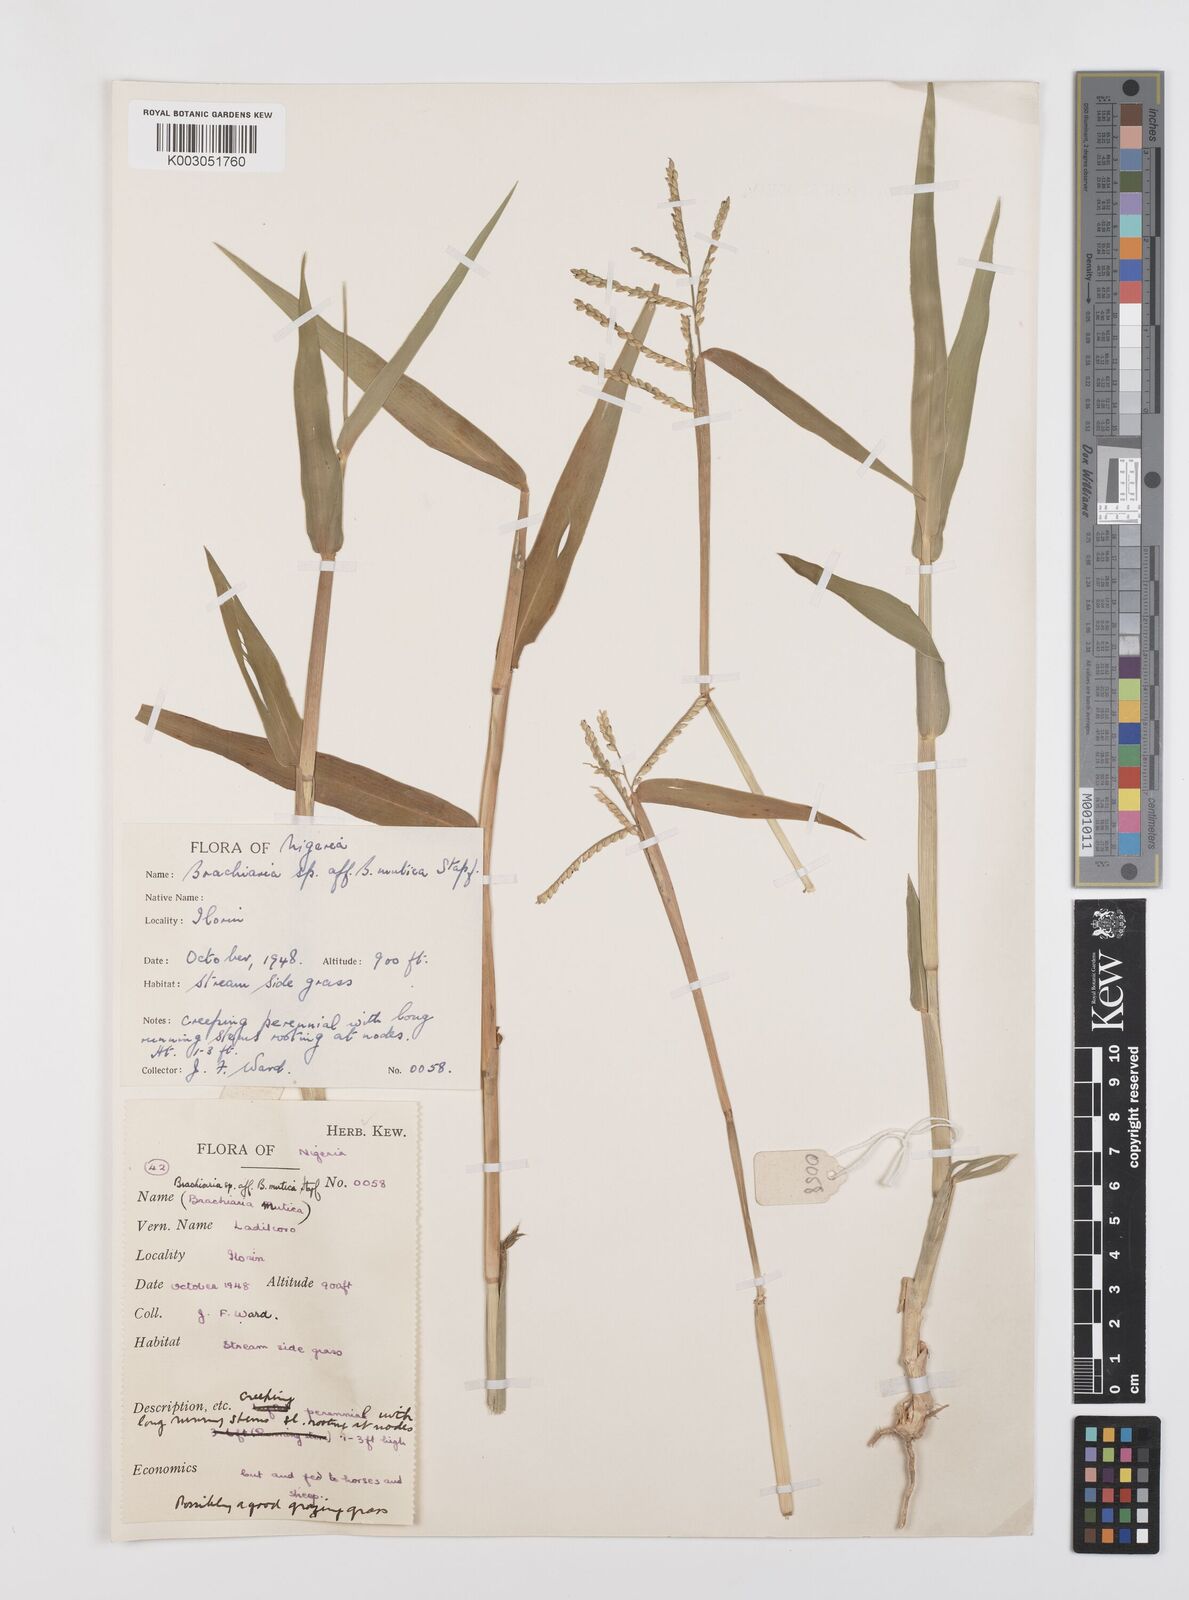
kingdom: Plantae
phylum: Tracheophyta
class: Liliopsida
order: Poales
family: Poaceae
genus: Urochloa
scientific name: Urochloa arrecta
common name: African signalgrass
